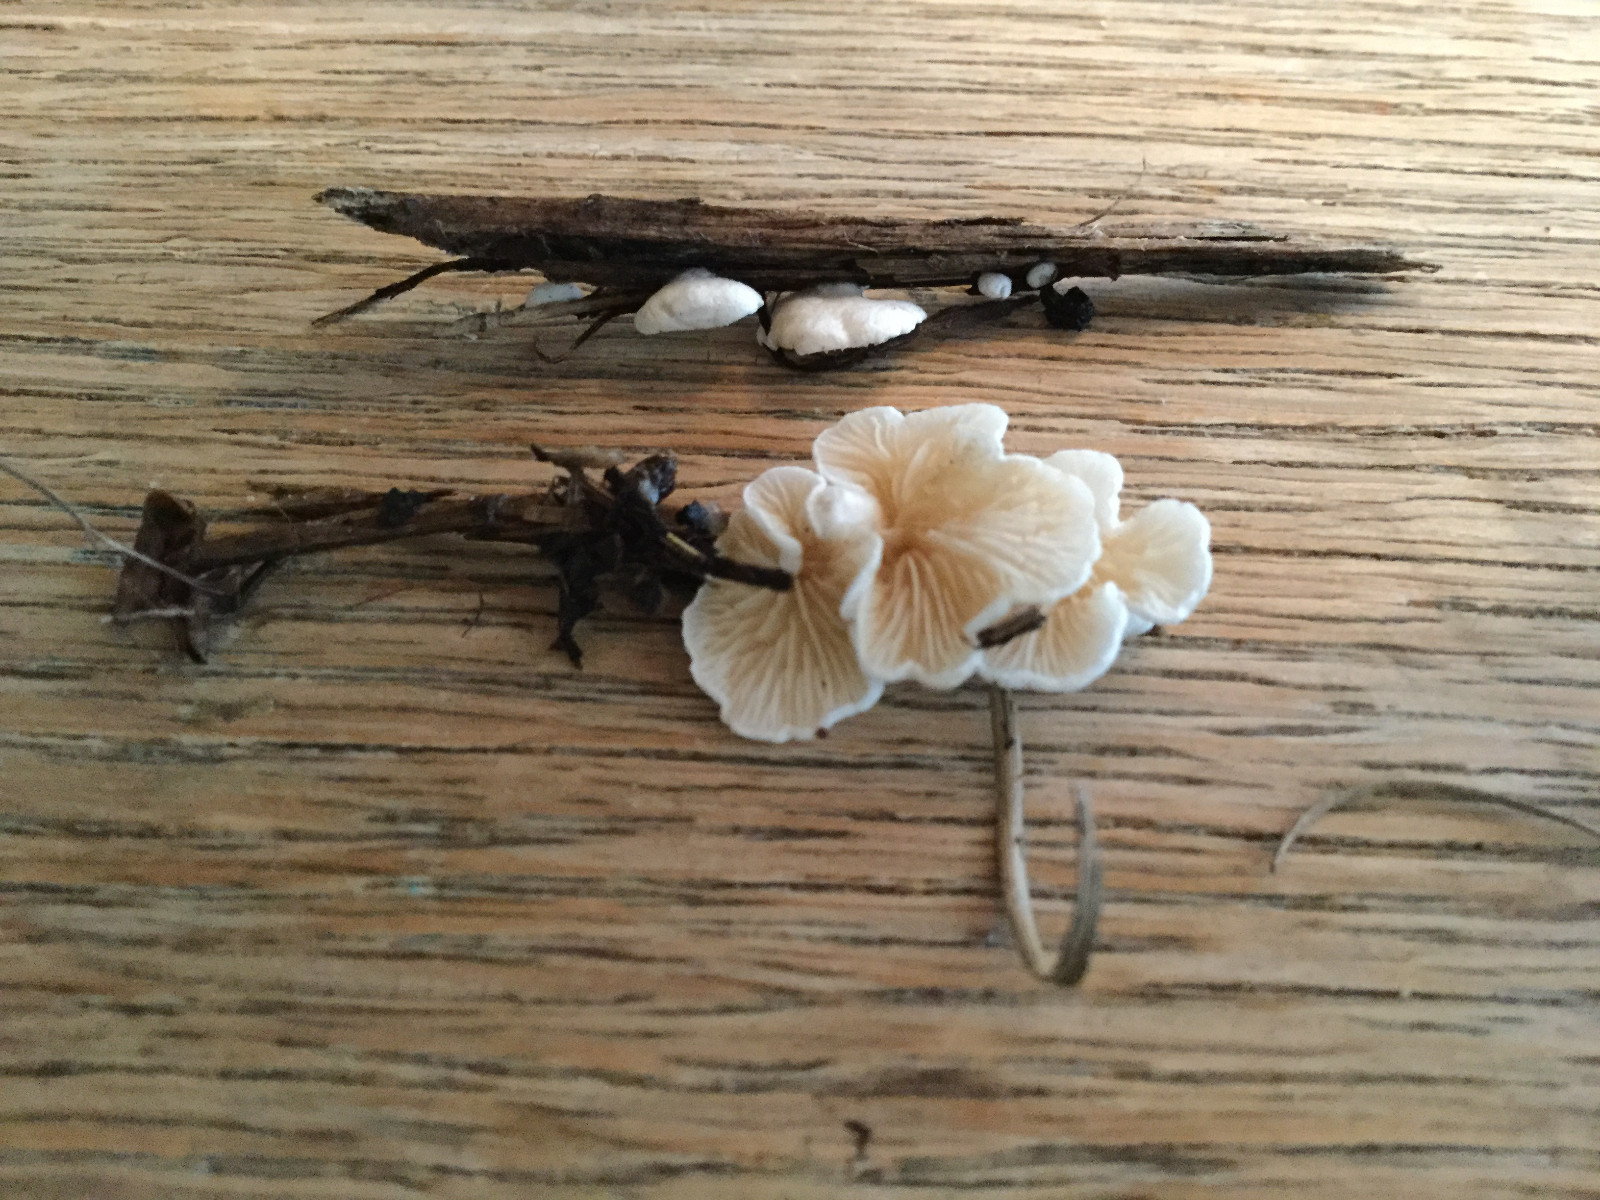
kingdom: Fungi
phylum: Basidiomycota
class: Agaricomycetes
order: Agaricales
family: Crepidotaceae
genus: Crepidotus
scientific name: Crepidotus epibryus
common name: førne-muslingesvamp
